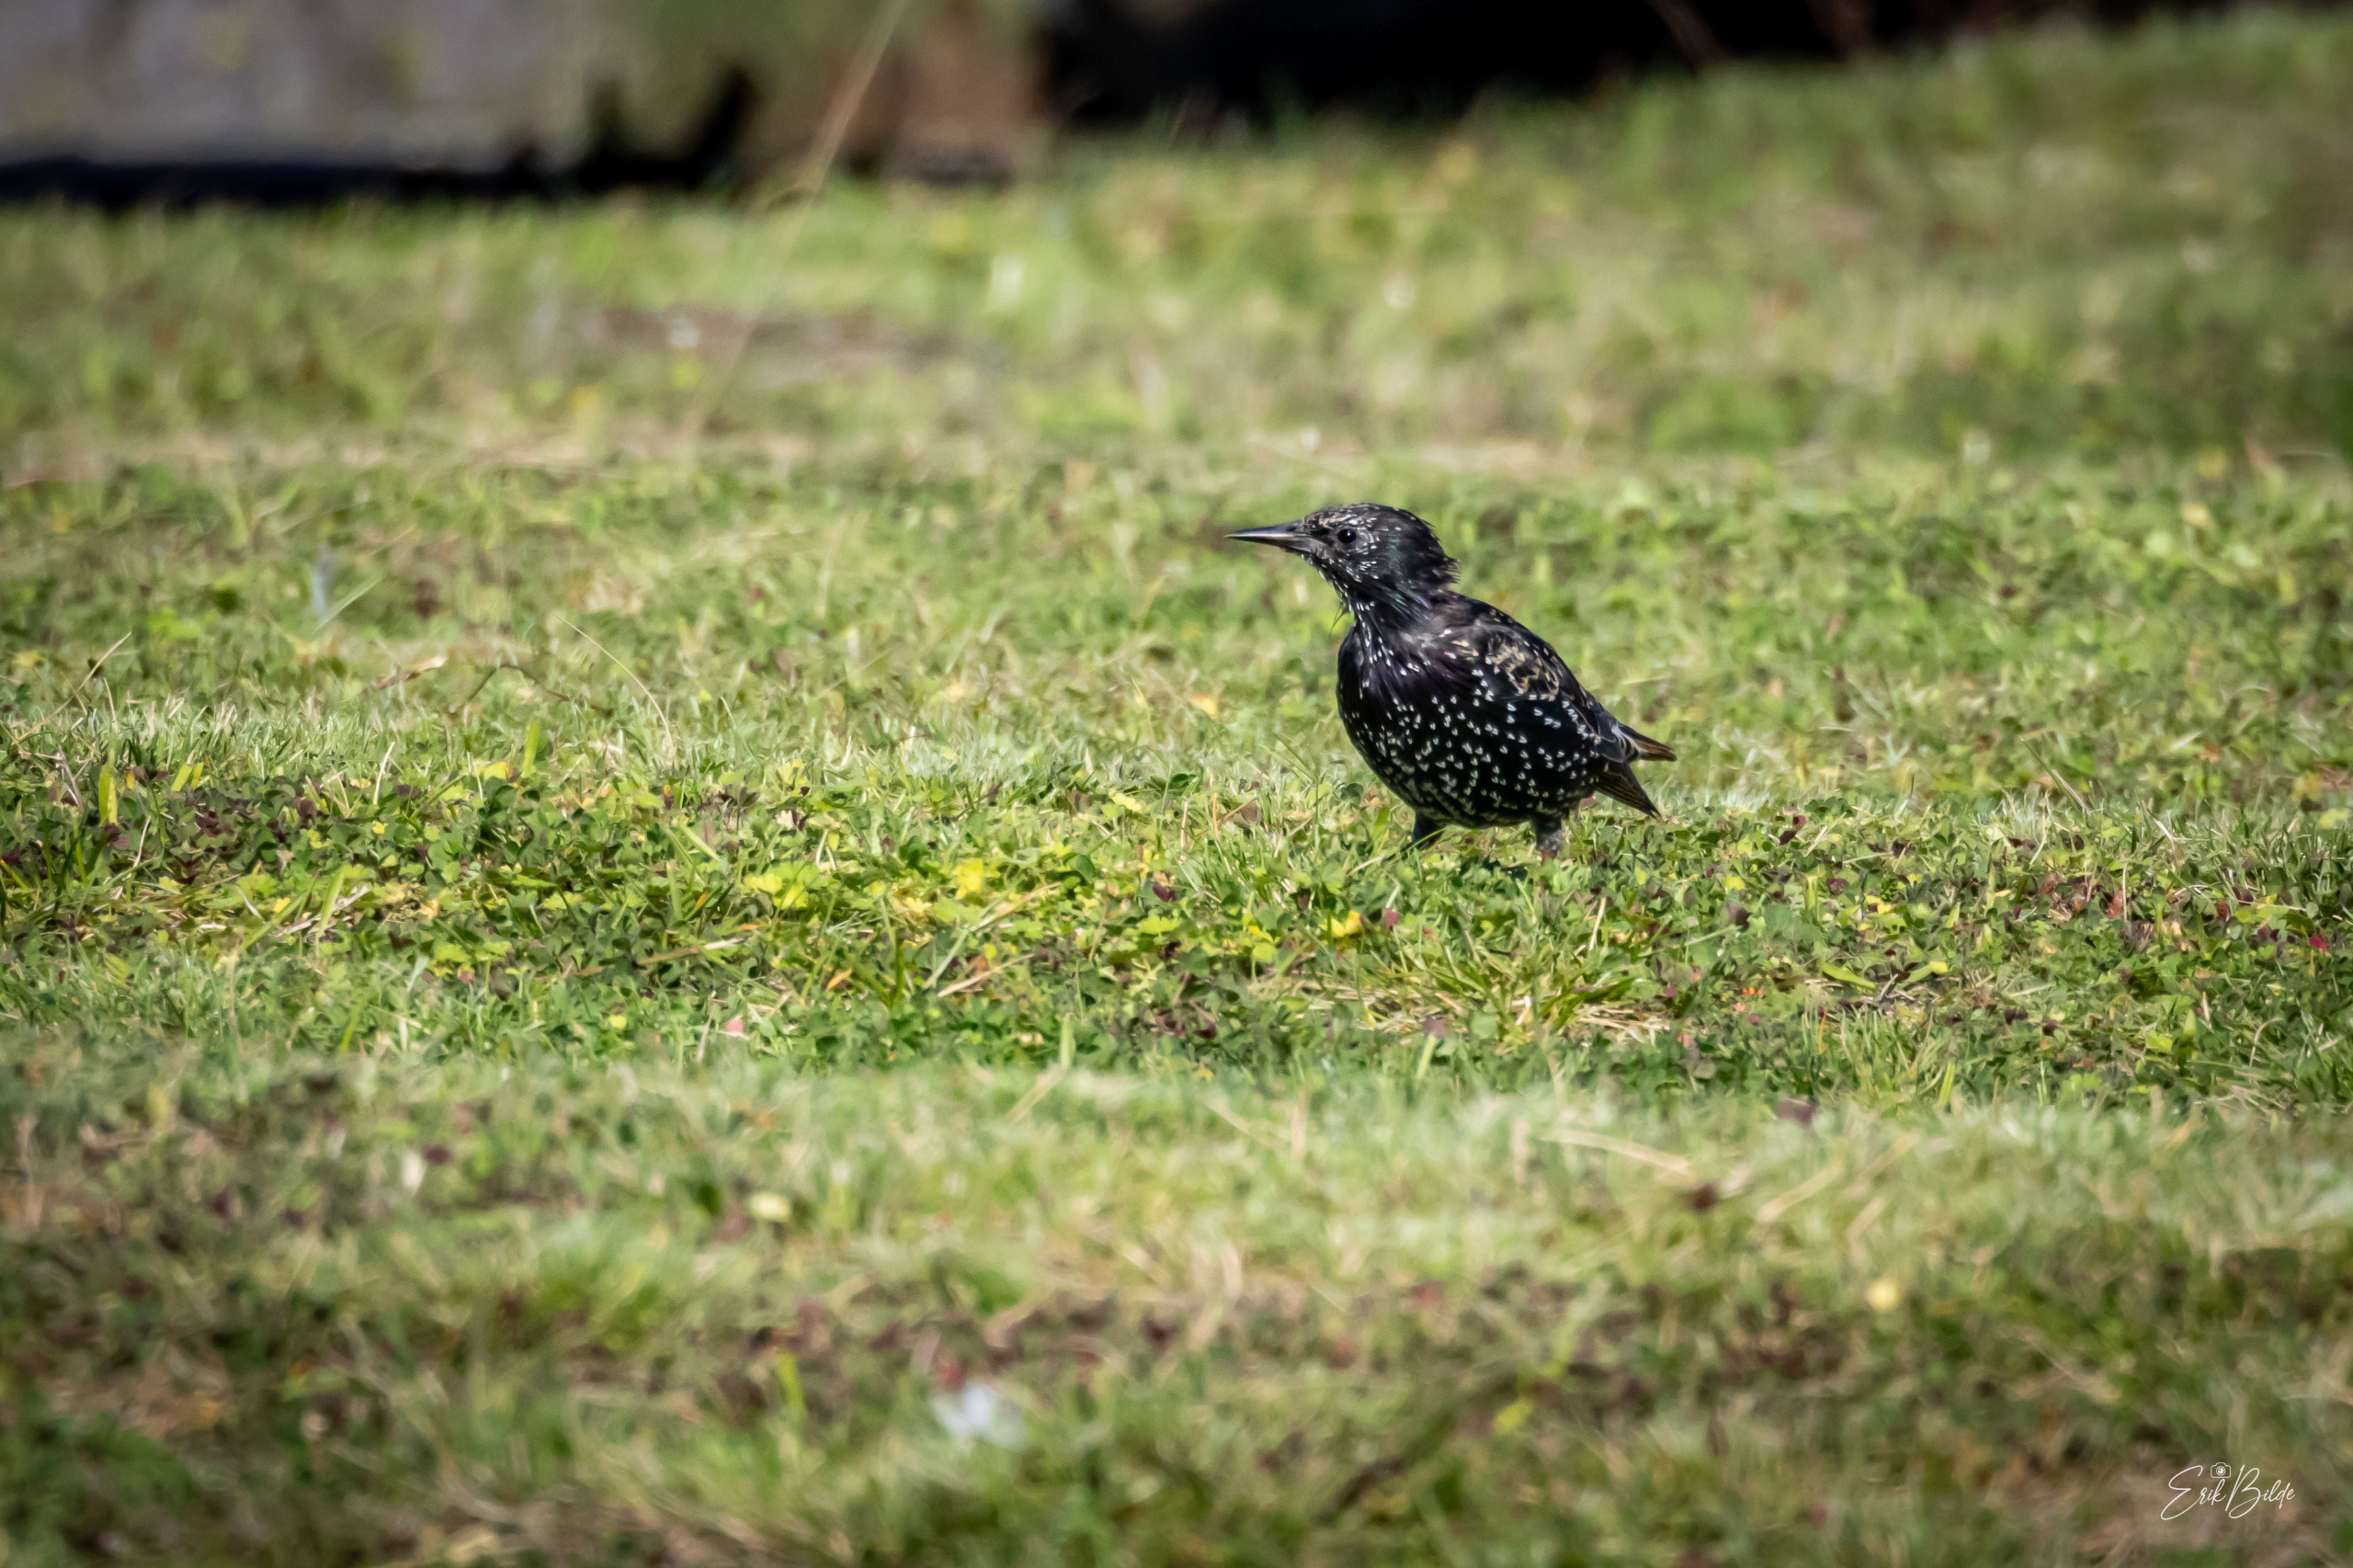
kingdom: Animalia
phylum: Chordata
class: Aves
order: Passeriformes
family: Sturnidae
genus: Sturnus
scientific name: Sturnus vulgaris
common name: Stær
